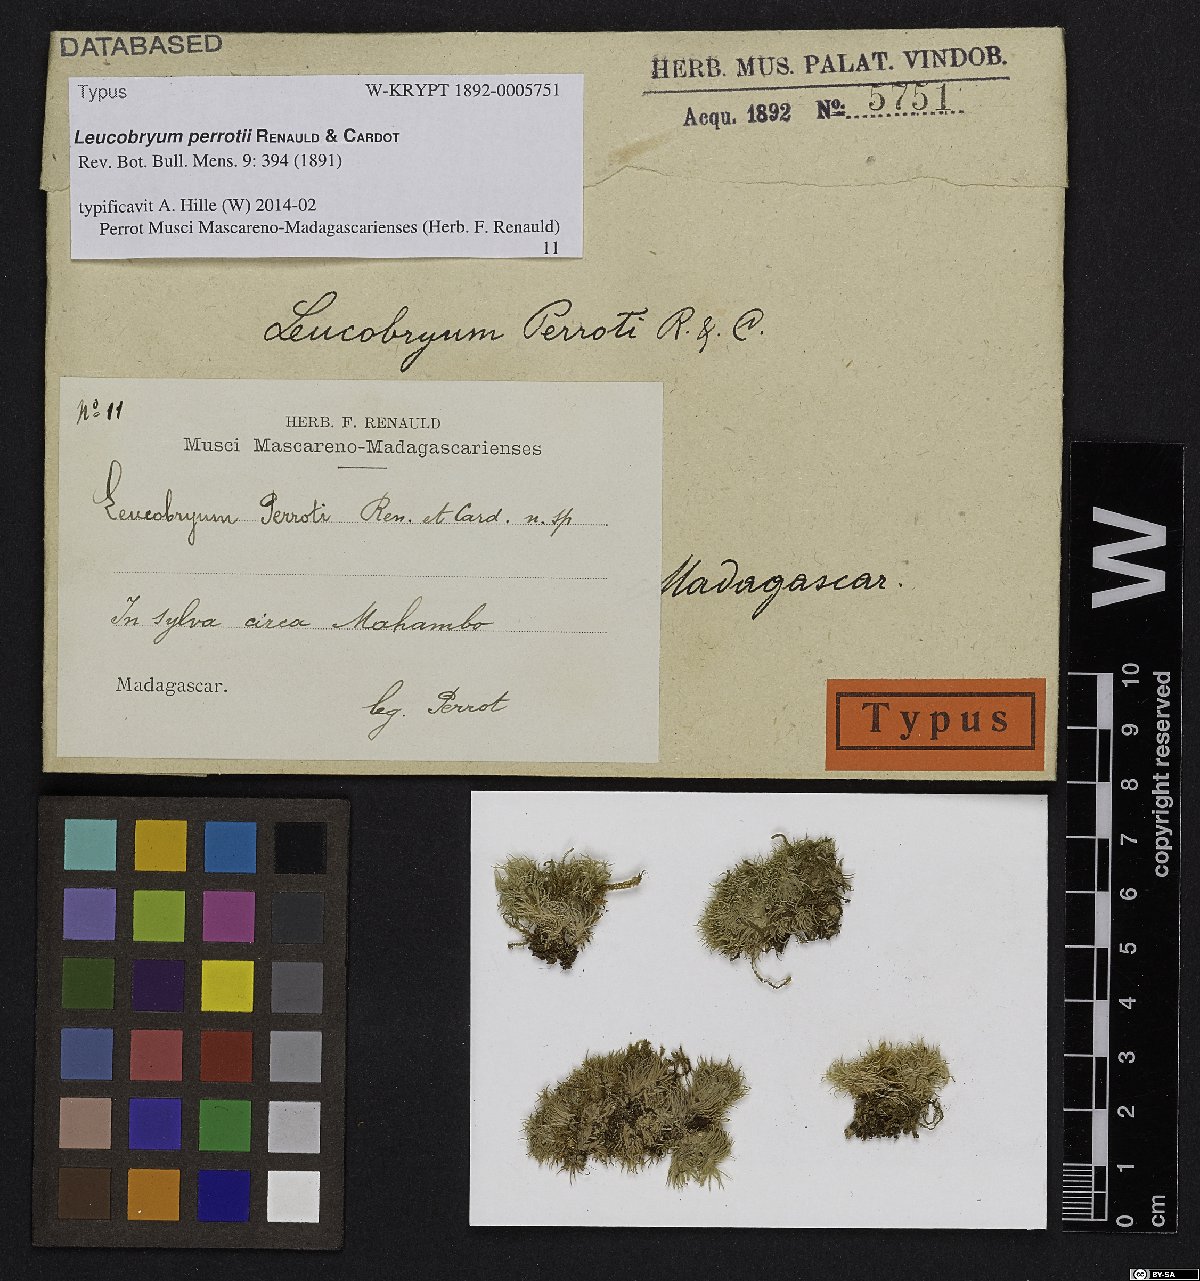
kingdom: Plantae
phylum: Bryophyta
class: Bryopsida
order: Dicranales
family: Leucobryaceae
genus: Leucobryum
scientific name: Leucobryum perrotii
